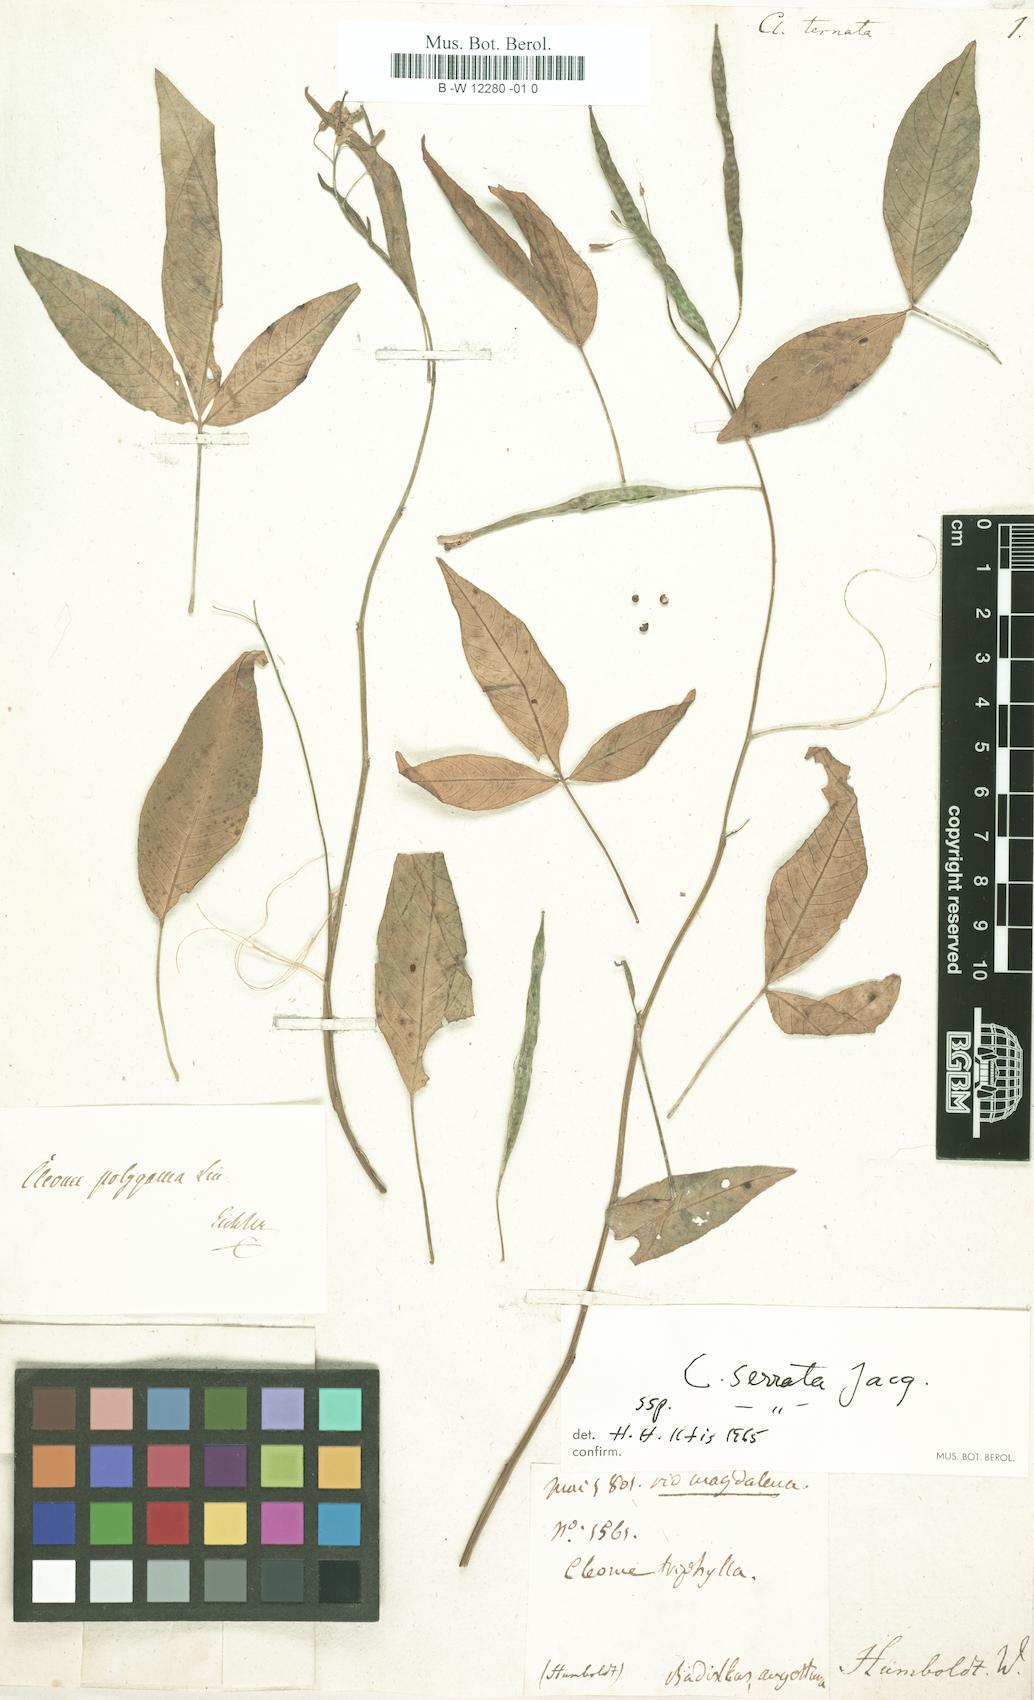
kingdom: Plantae
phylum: Tracheophyta
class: Magnoliopsida
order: Brassicales
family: Cleomaceae
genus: Cleoserrata
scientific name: Cleoserrata serrata
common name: Toothed spiderflower
